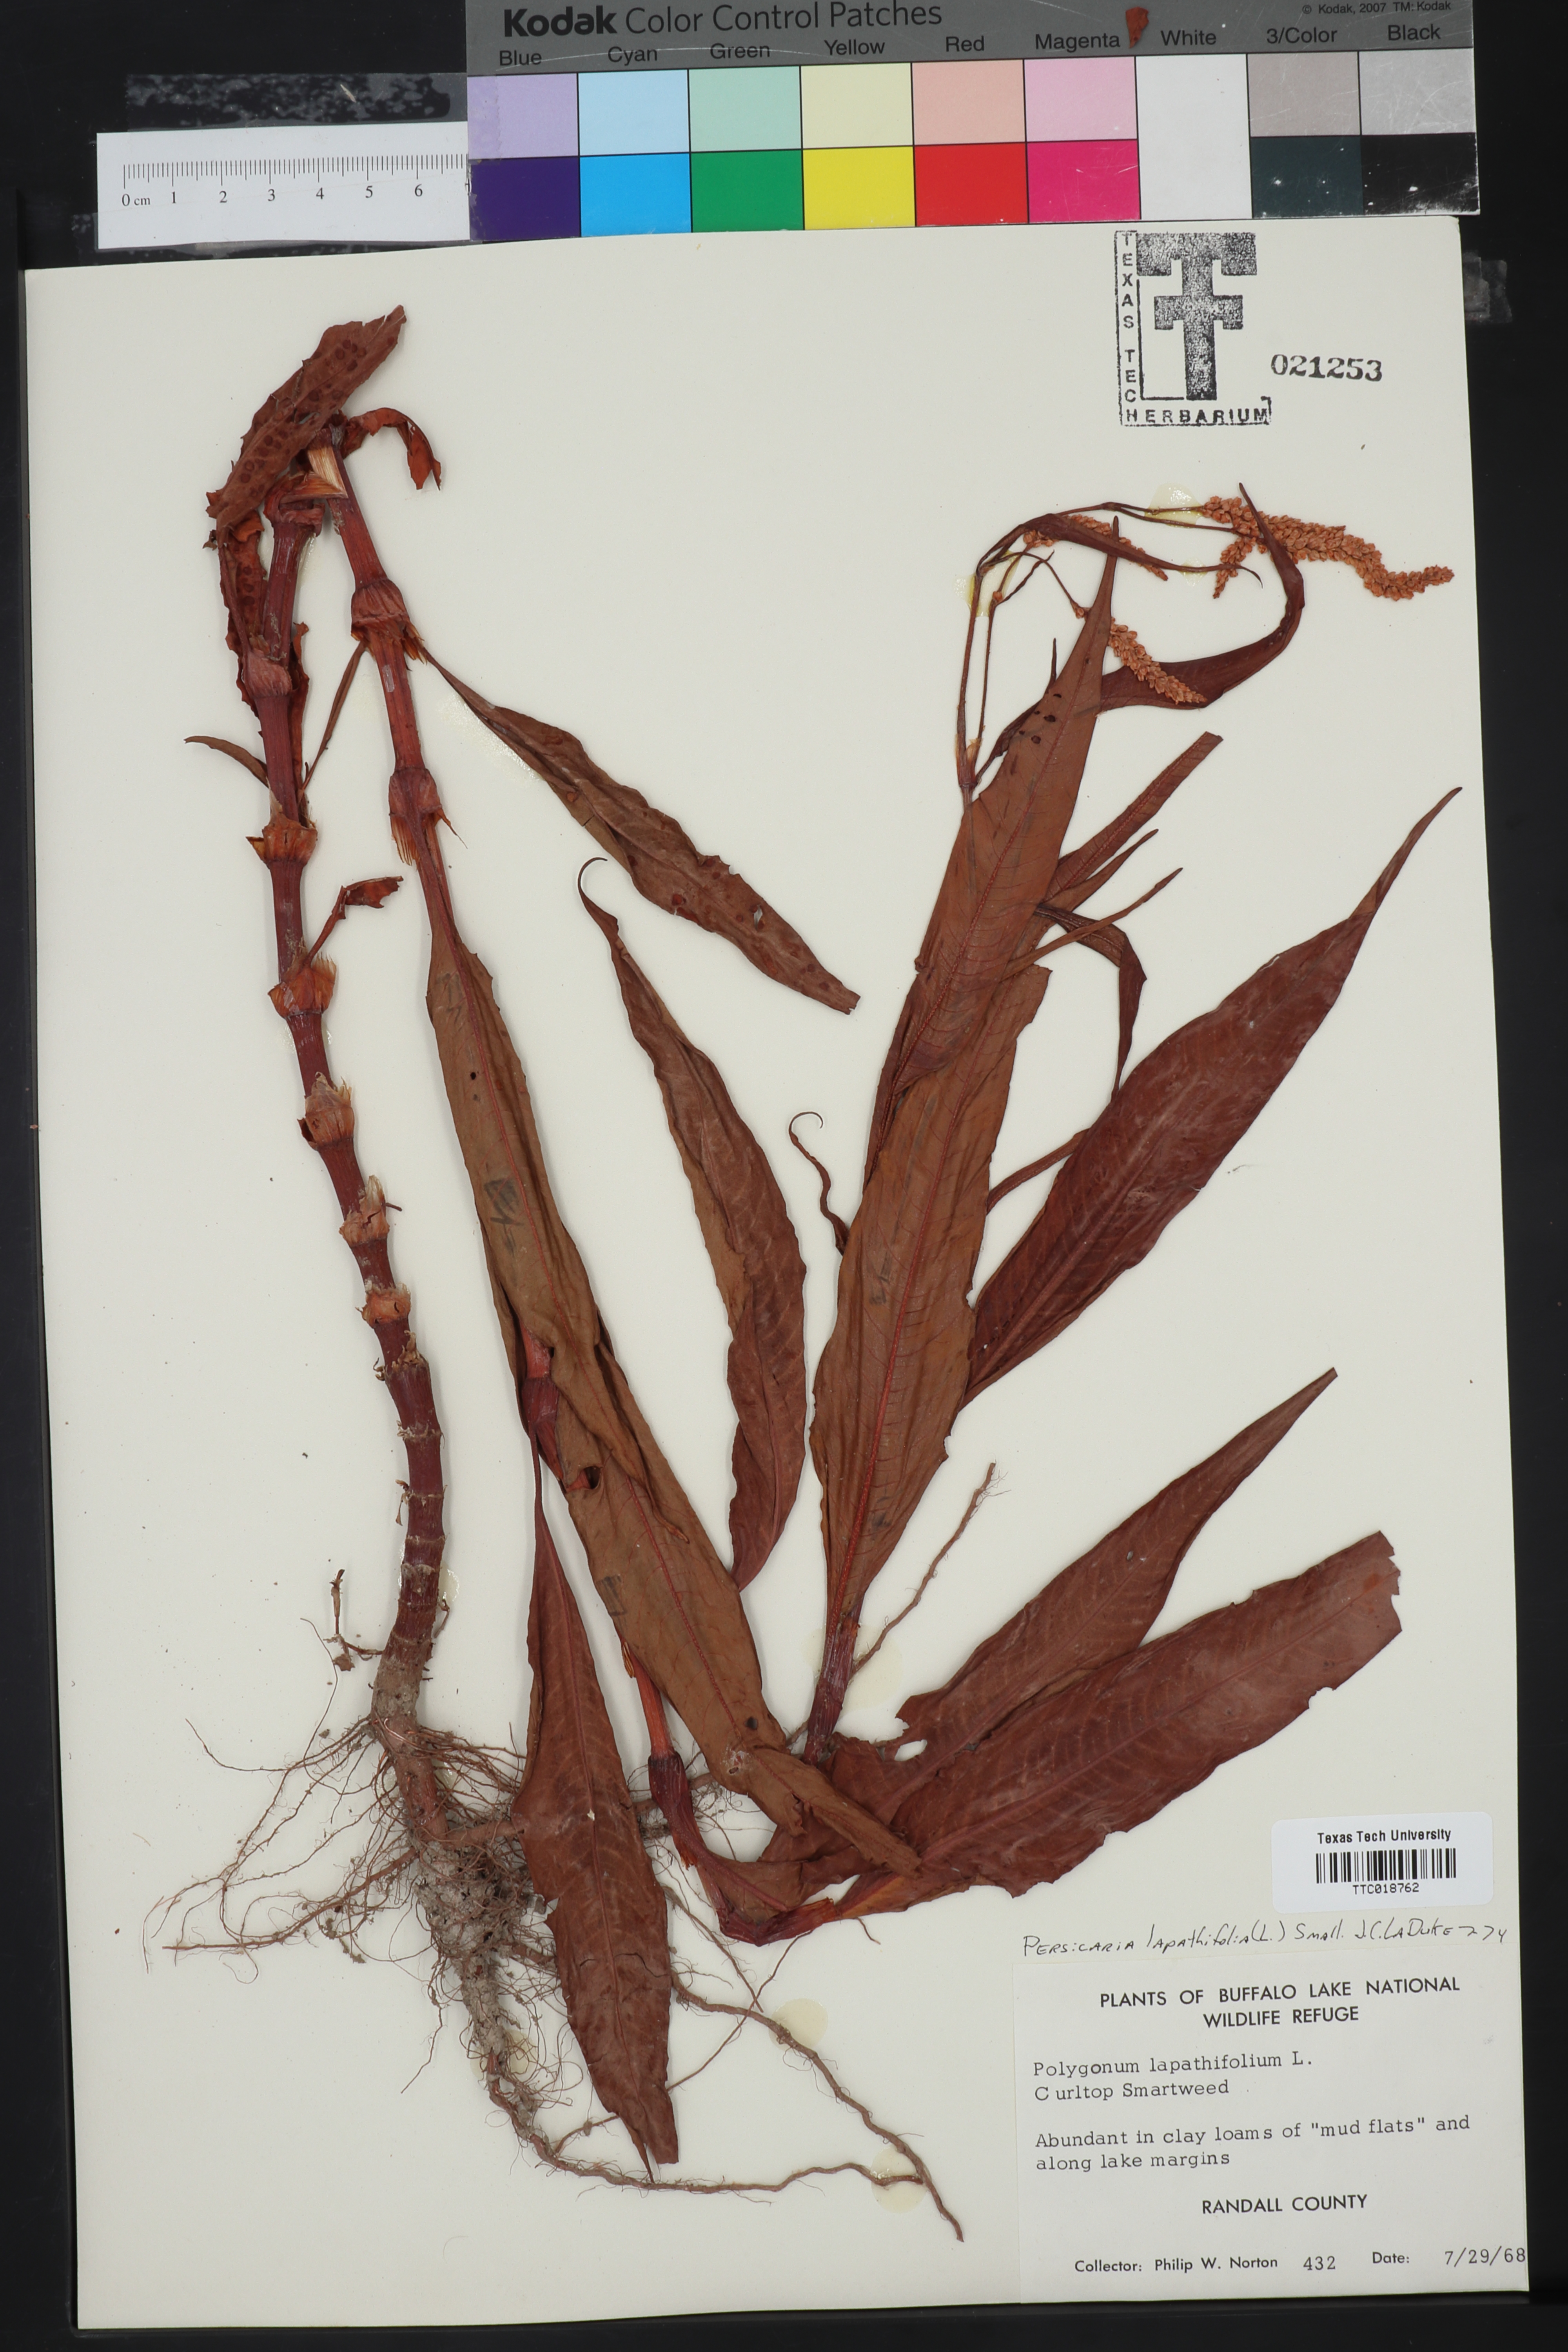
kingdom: Plantae
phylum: Tracheophyta
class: Magnoliopsida
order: Caryophyllales
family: Polygonaceae
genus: Persicaria
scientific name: Persicaria lapathifolia
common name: Curlytop knotweed
